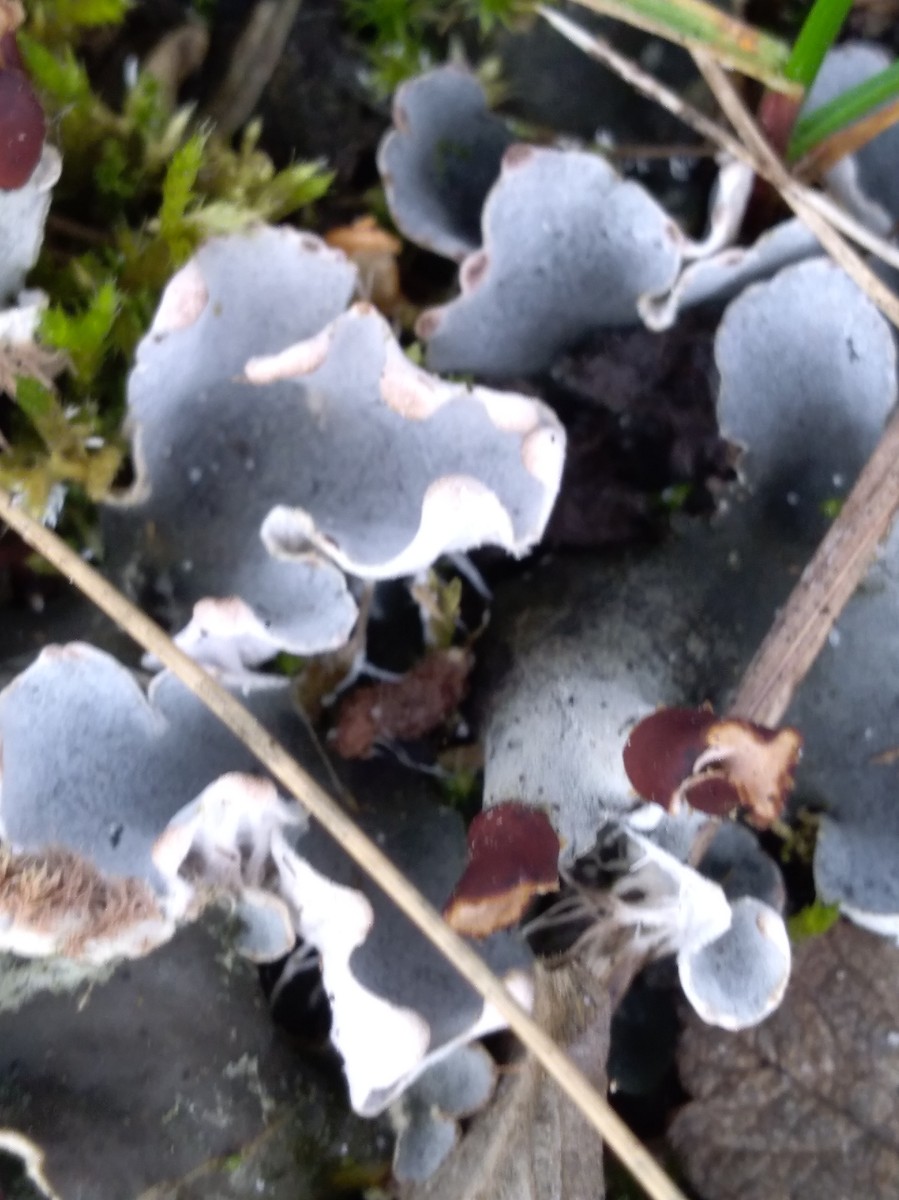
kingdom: Fungi
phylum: Ascomycota
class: Lecanoromycetes
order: Peltigerales
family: Peltigeraceae
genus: Peltigera
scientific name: Peltigera
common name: skjoldlav
